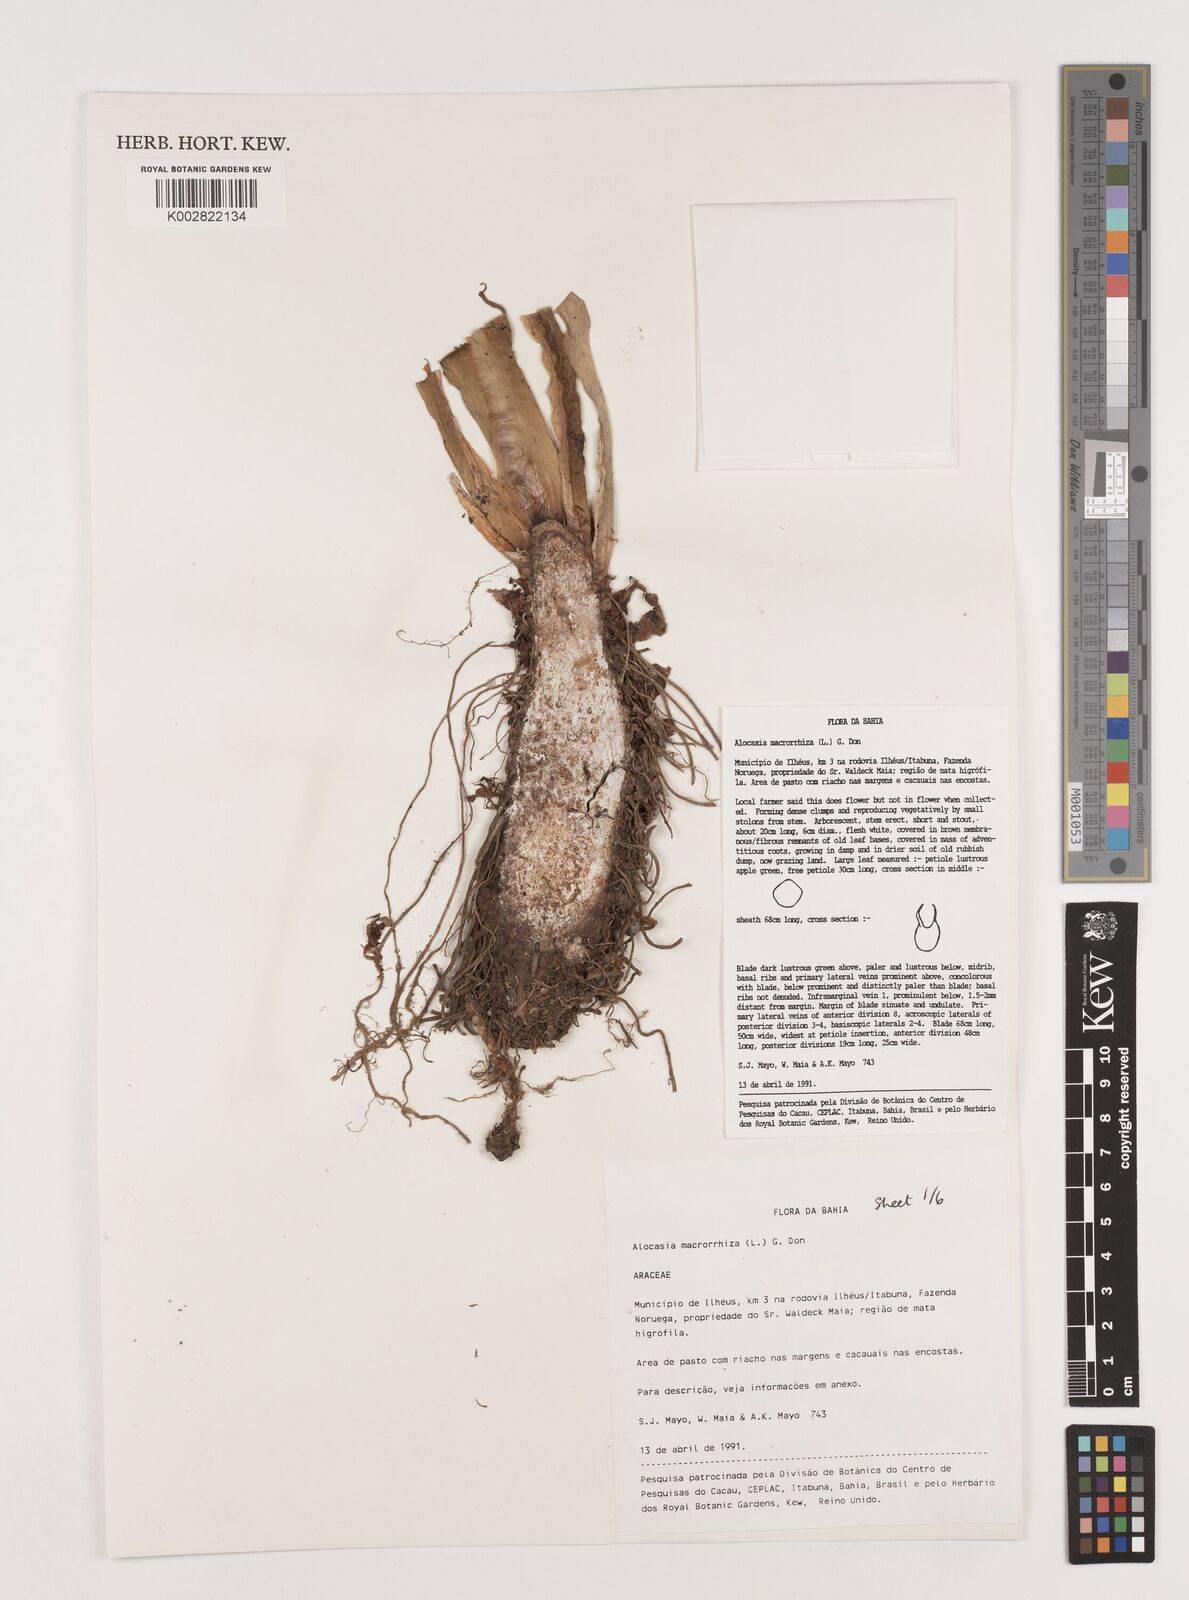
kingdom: Plantae
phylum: Tracheophyta
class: Liliopsida
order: Alismatales
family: Araceae
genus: Alocasia
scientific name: Alocasia macrorrhizos
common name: Giant taro
